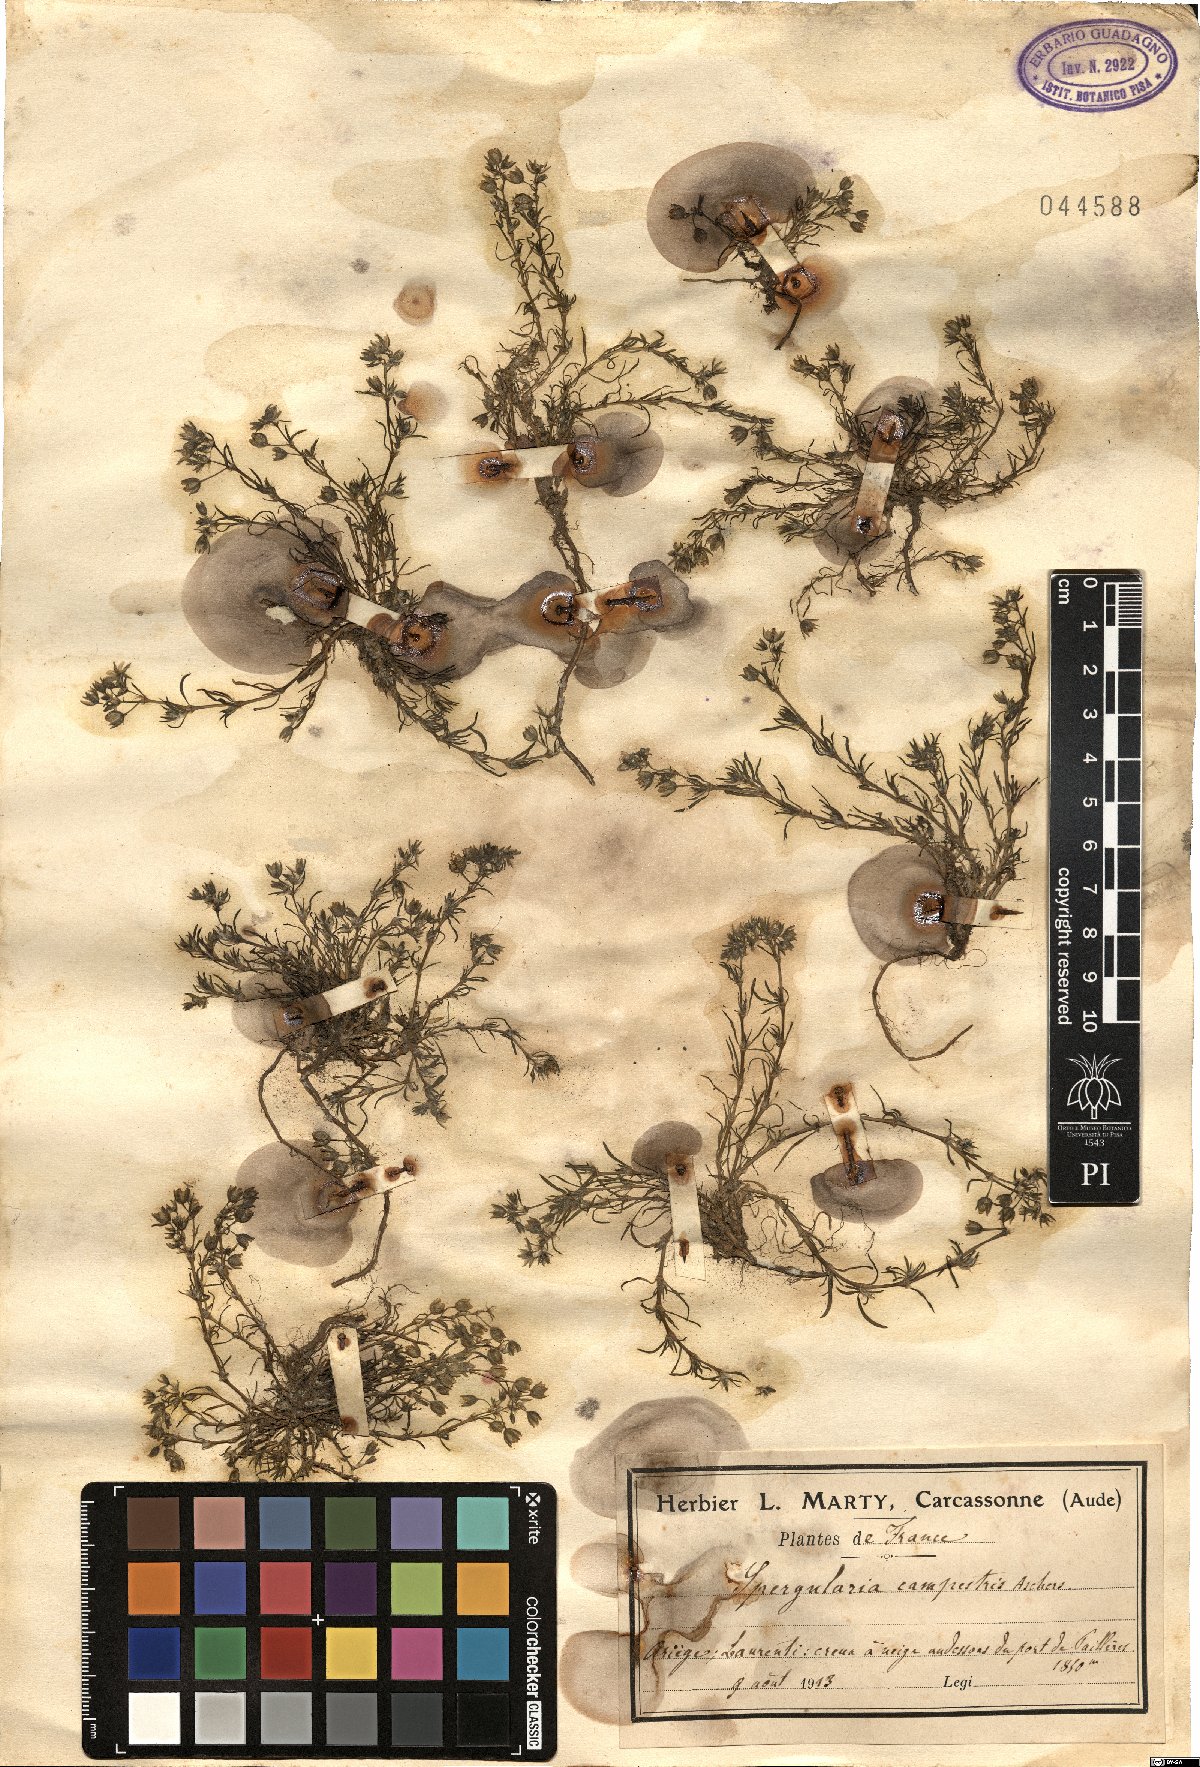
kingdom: Plantae
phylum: Tracheophyta
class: Magnoliopsida
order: Caryophyllales
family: Caryophyllaceae
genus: Spergularia
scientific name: Spergularia rubra
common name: Red sand-spurrey
